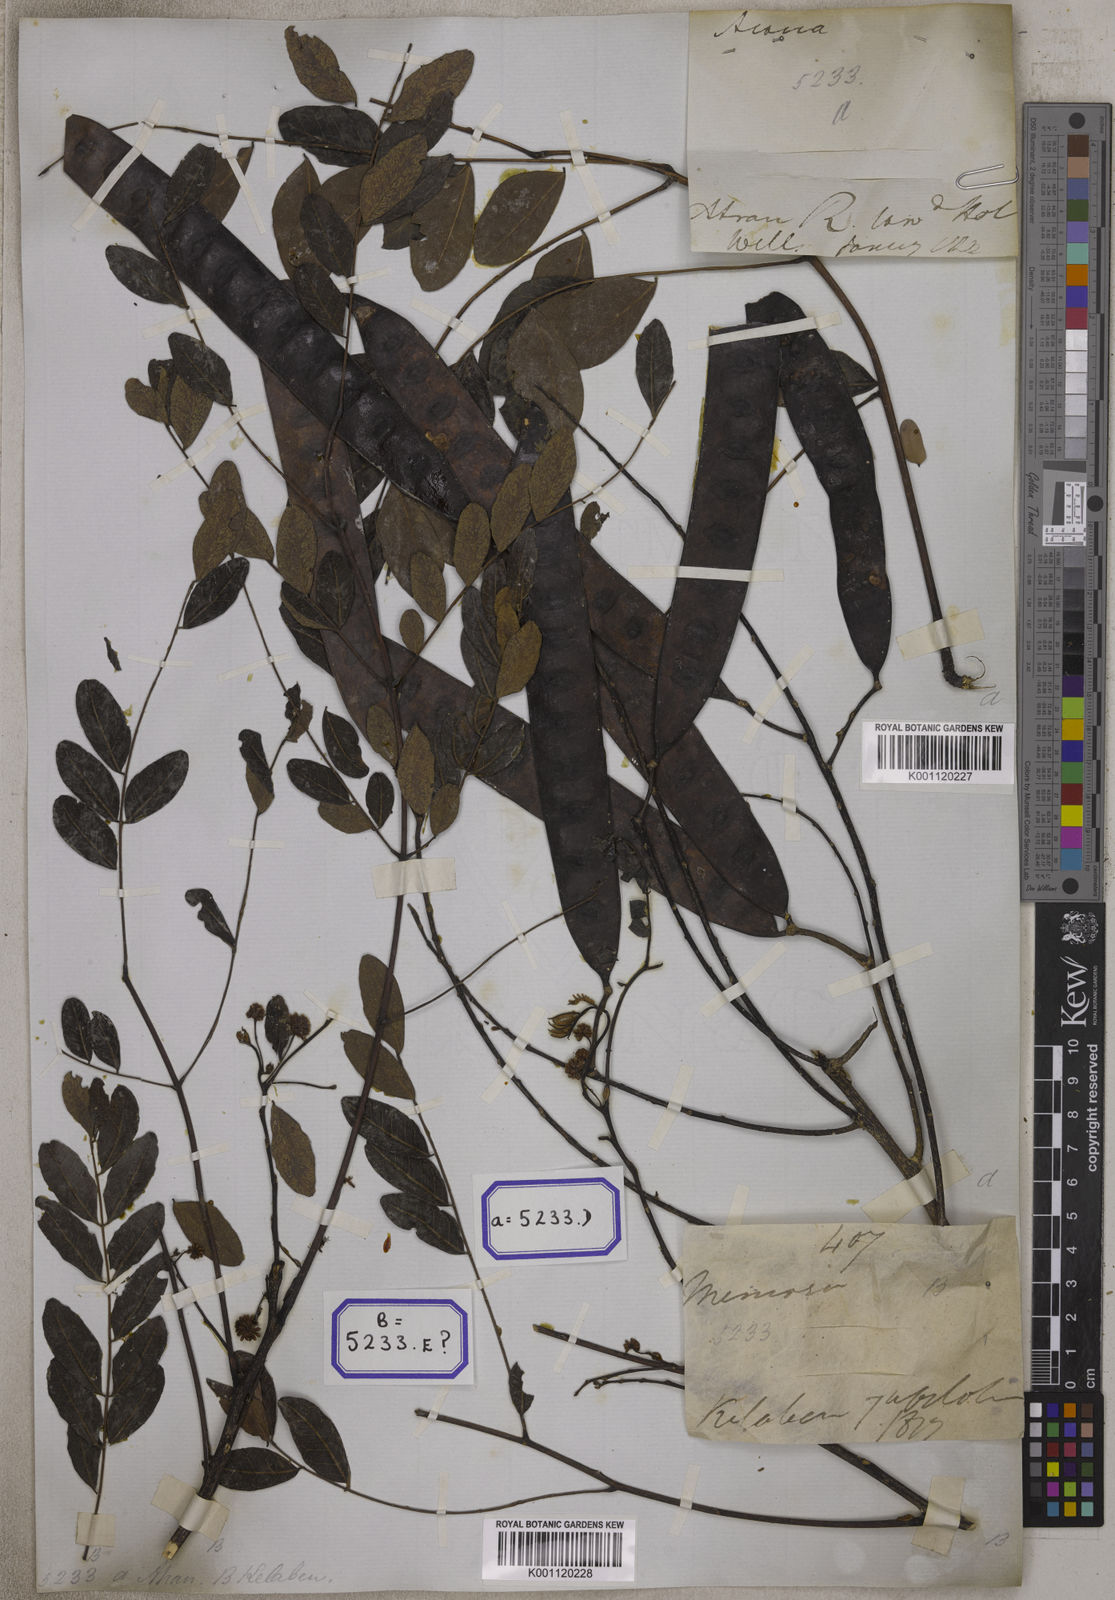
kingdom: Plantae
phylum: Tracheophyta
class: Magnoliopsida
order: Fabales
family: Fabaceae
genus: Acacia
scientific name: Acacia
